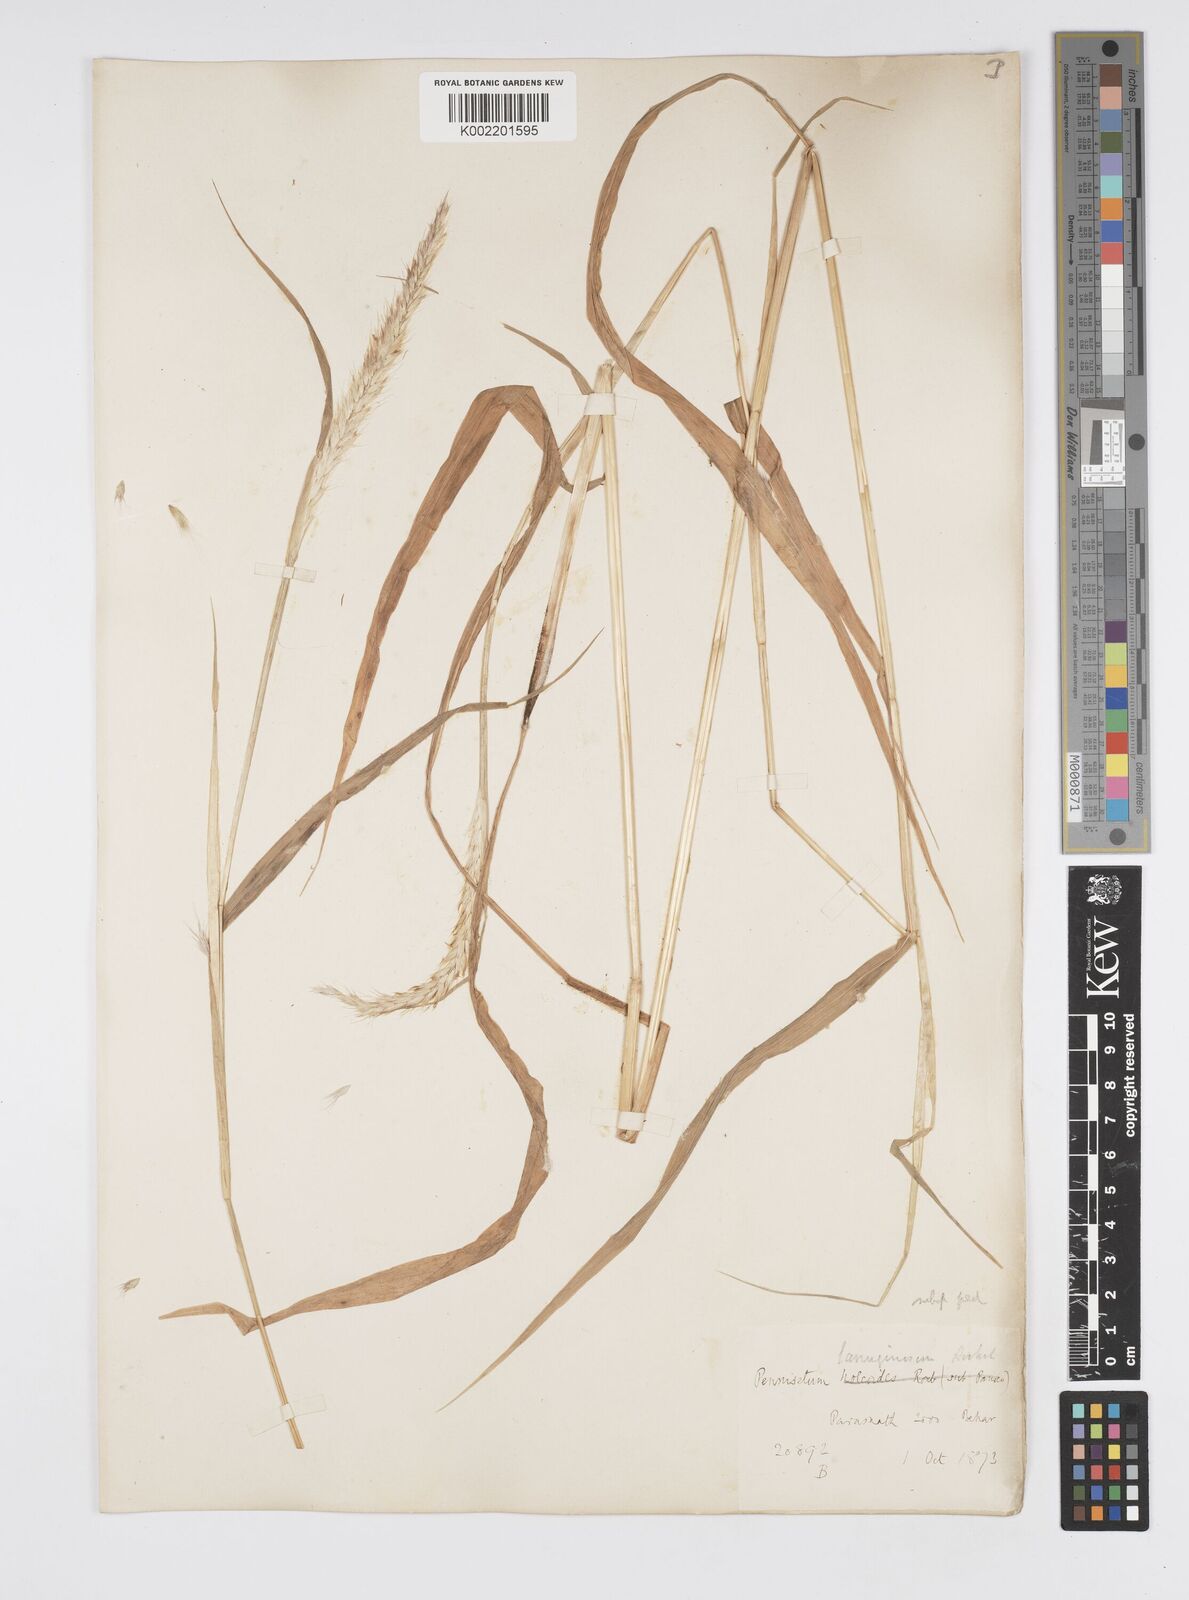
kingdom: Plantae
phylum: Tracheophyta
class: Liliopsida
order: Poales
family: Poaceae
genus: Cenchrus
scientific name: Cenchrus pedicellatus
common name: Hairy fountain grass
